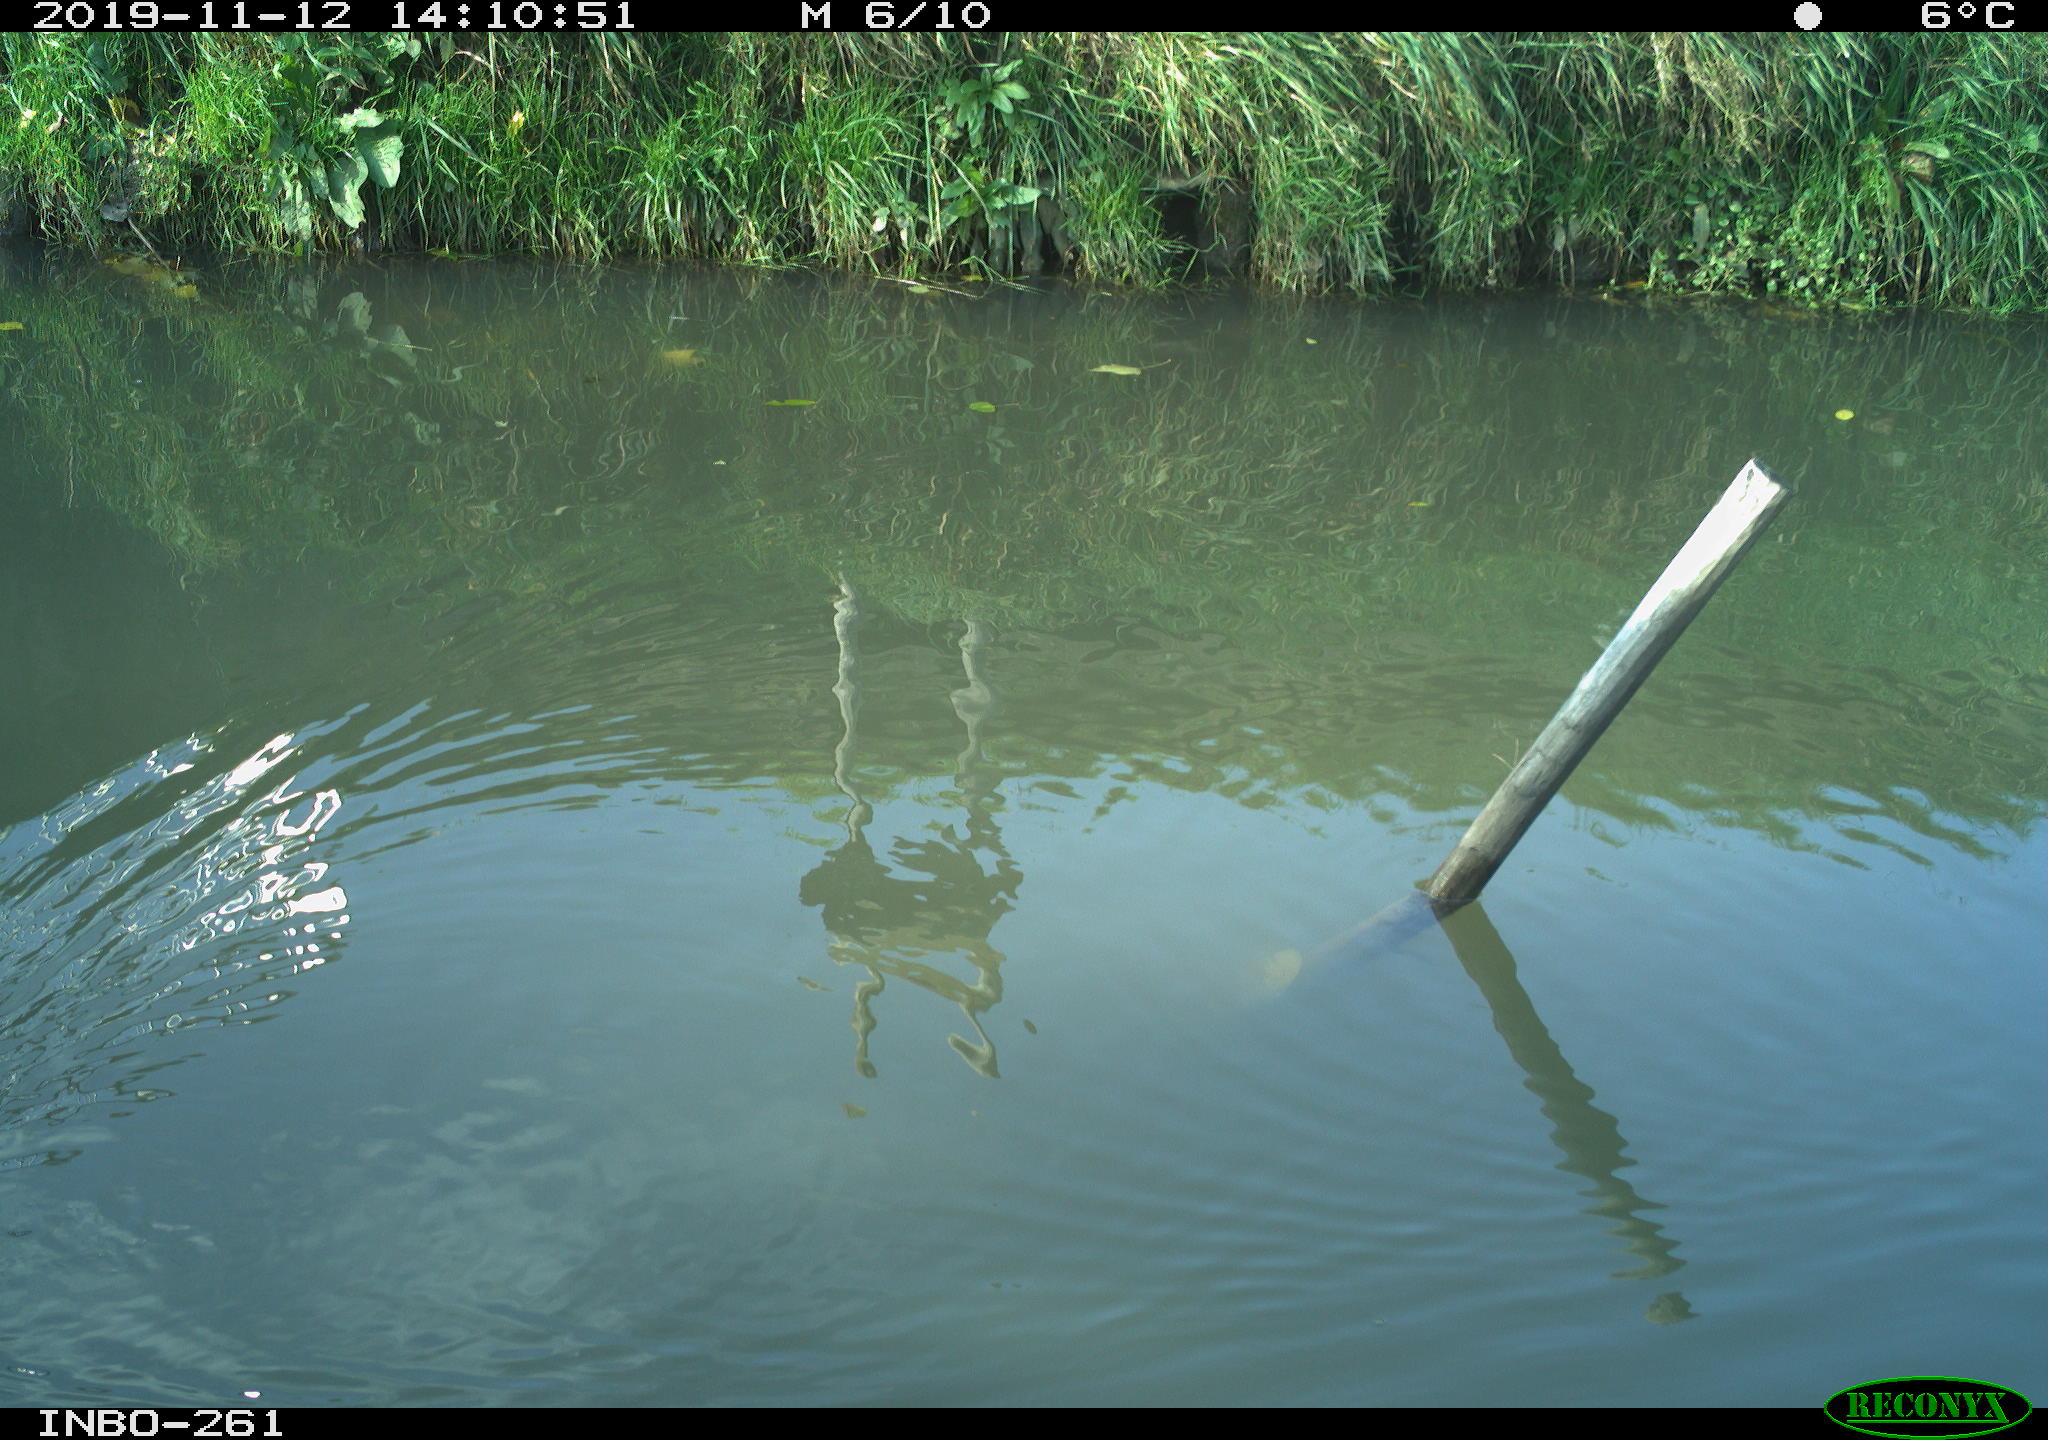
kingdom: Animalia
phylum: Chordata
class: Aves
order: Gruiformes
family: Rallidae
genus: Gallinula
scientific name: Gallinula chloropus
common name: Common moorhen
